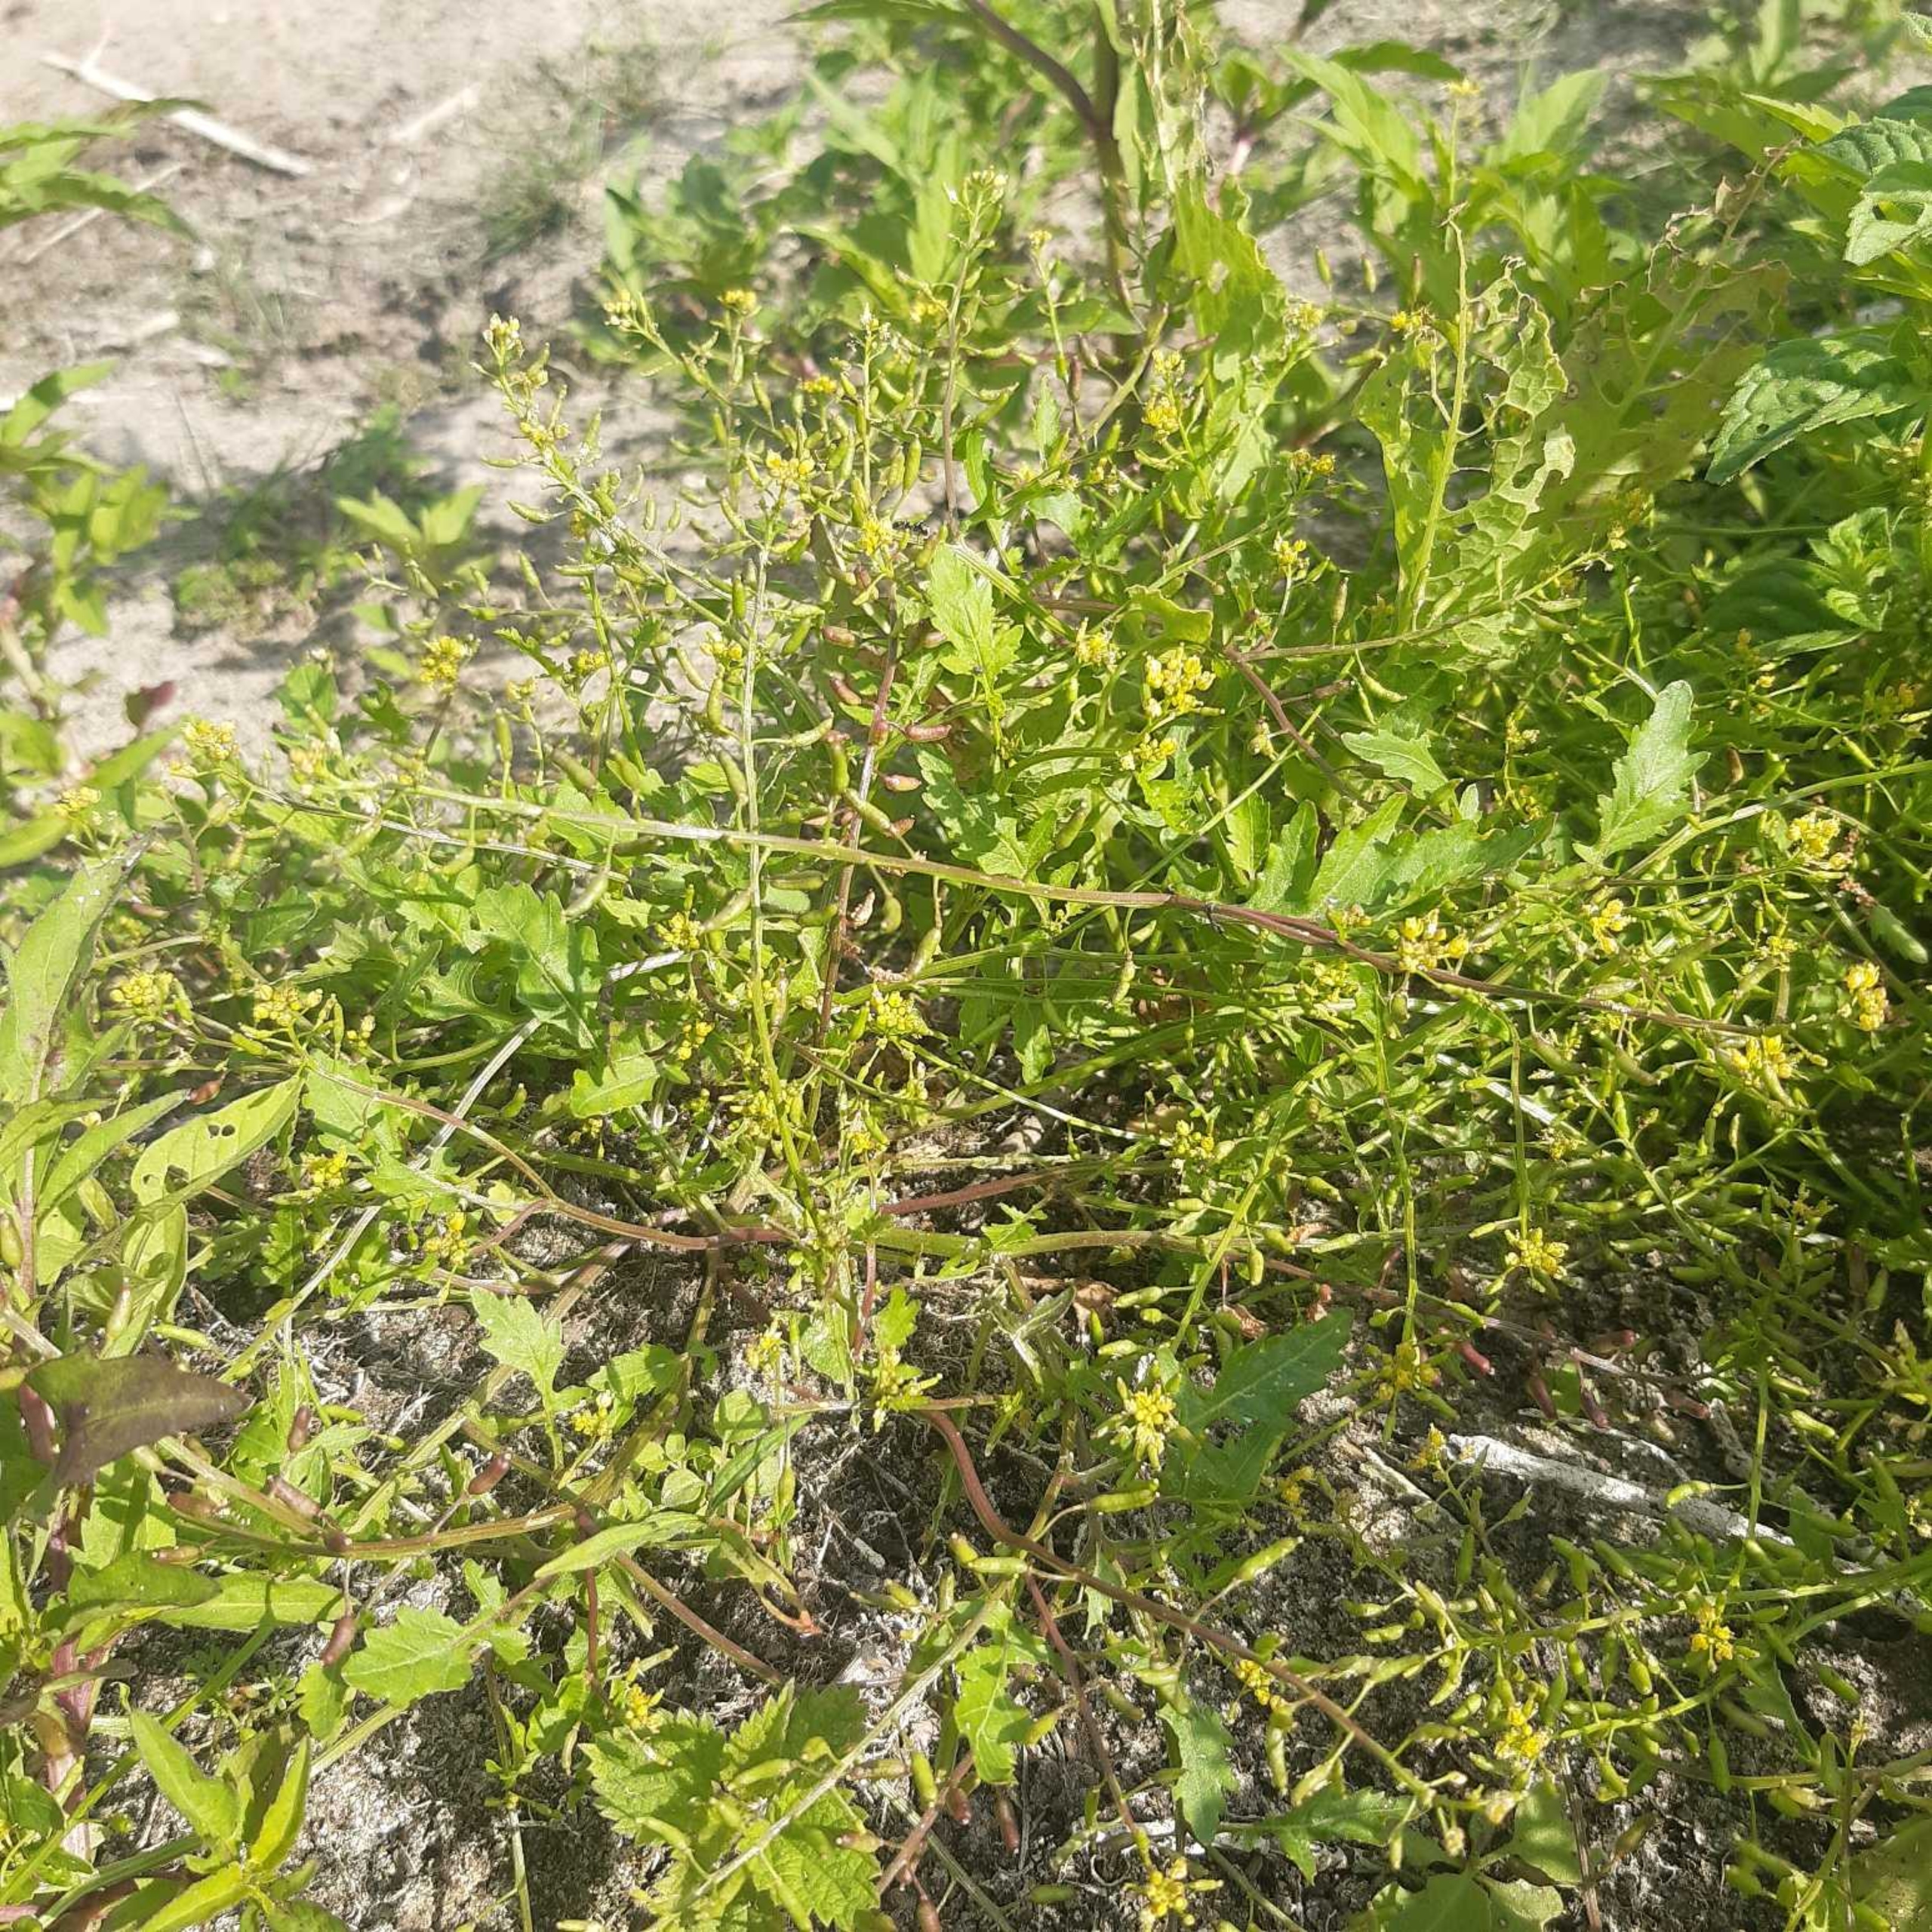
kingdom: Plantae
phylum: Tracheophyta
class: Magnoliopsida
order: Brassicales
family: Brassicaceae
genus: Rorippa
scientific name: Rorippa palustris
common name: Kær-guldkarse
